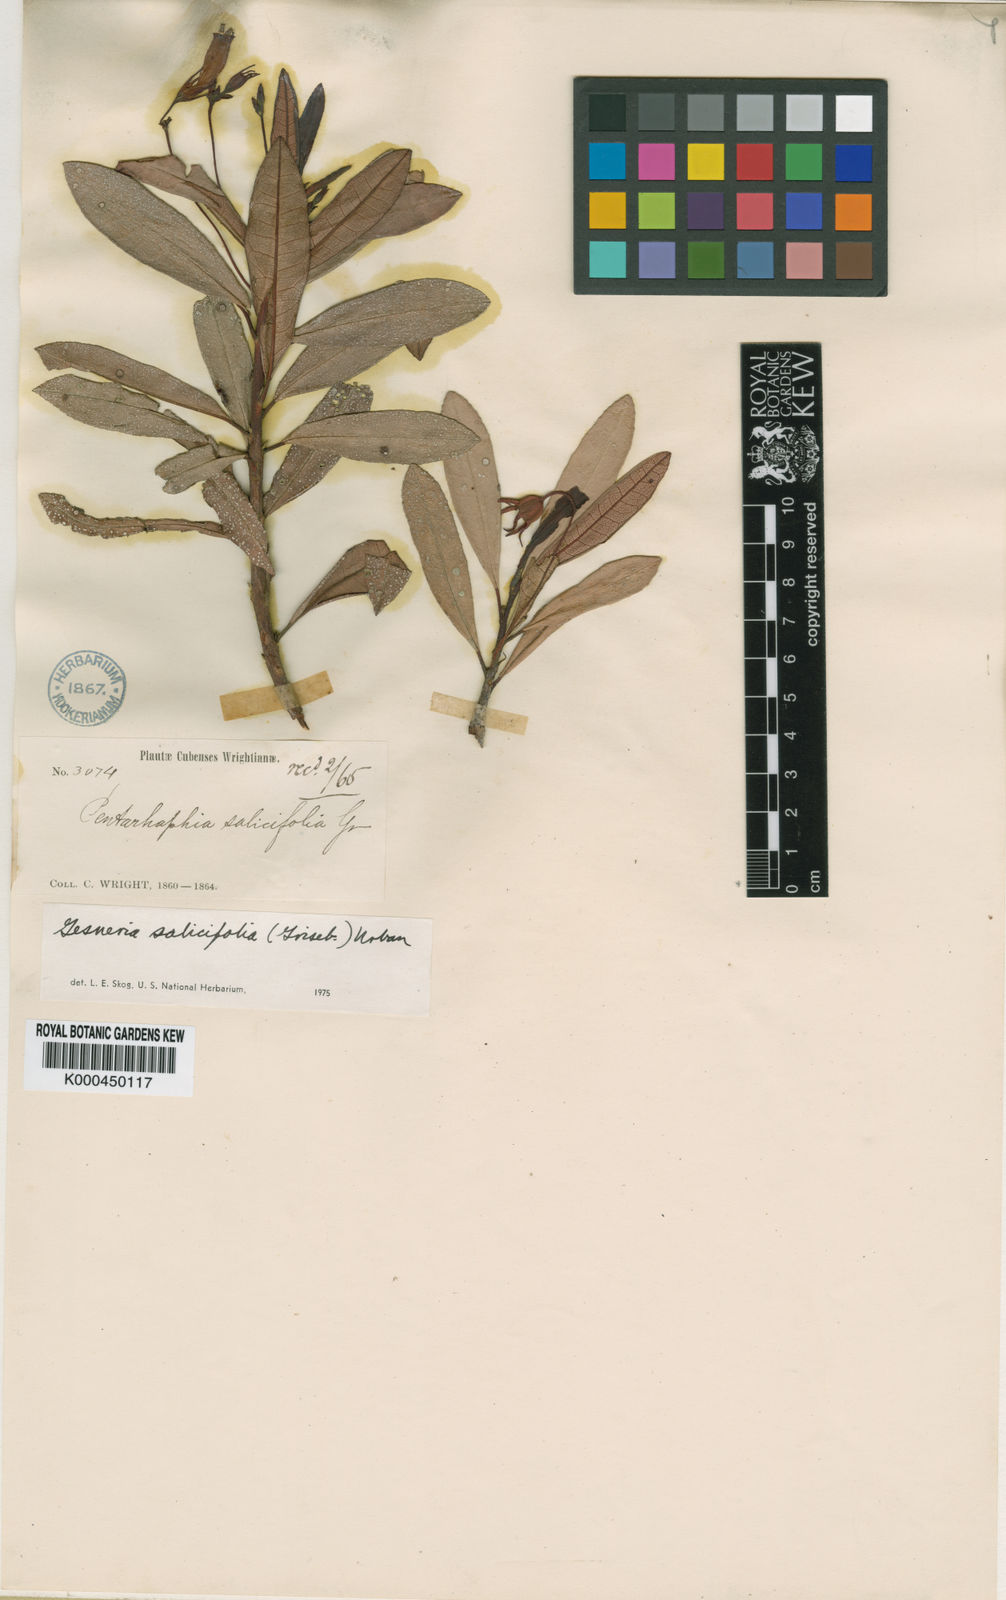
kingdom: Plantae
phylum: Tracheophyta
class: Magnoliopsida
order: Lamiales
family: Gesneriaceae
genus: Gesneria
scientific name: Gesneria salicifolia
